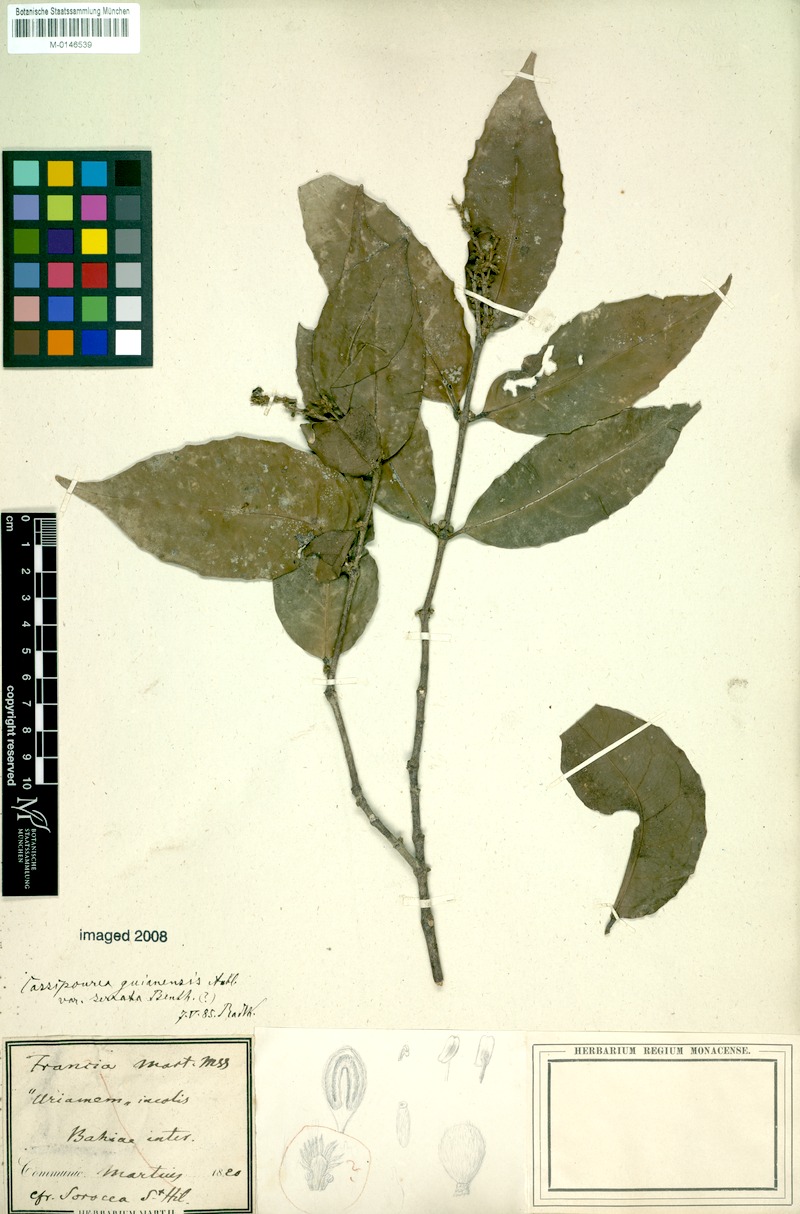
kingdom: Plantae
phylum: Tracheophyta
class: Magnoliopsida
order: Malpighiales
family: Rhizophoraceae
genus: Cassipourea
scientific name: Cassipourea guianensis
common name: Bastard waterwood
